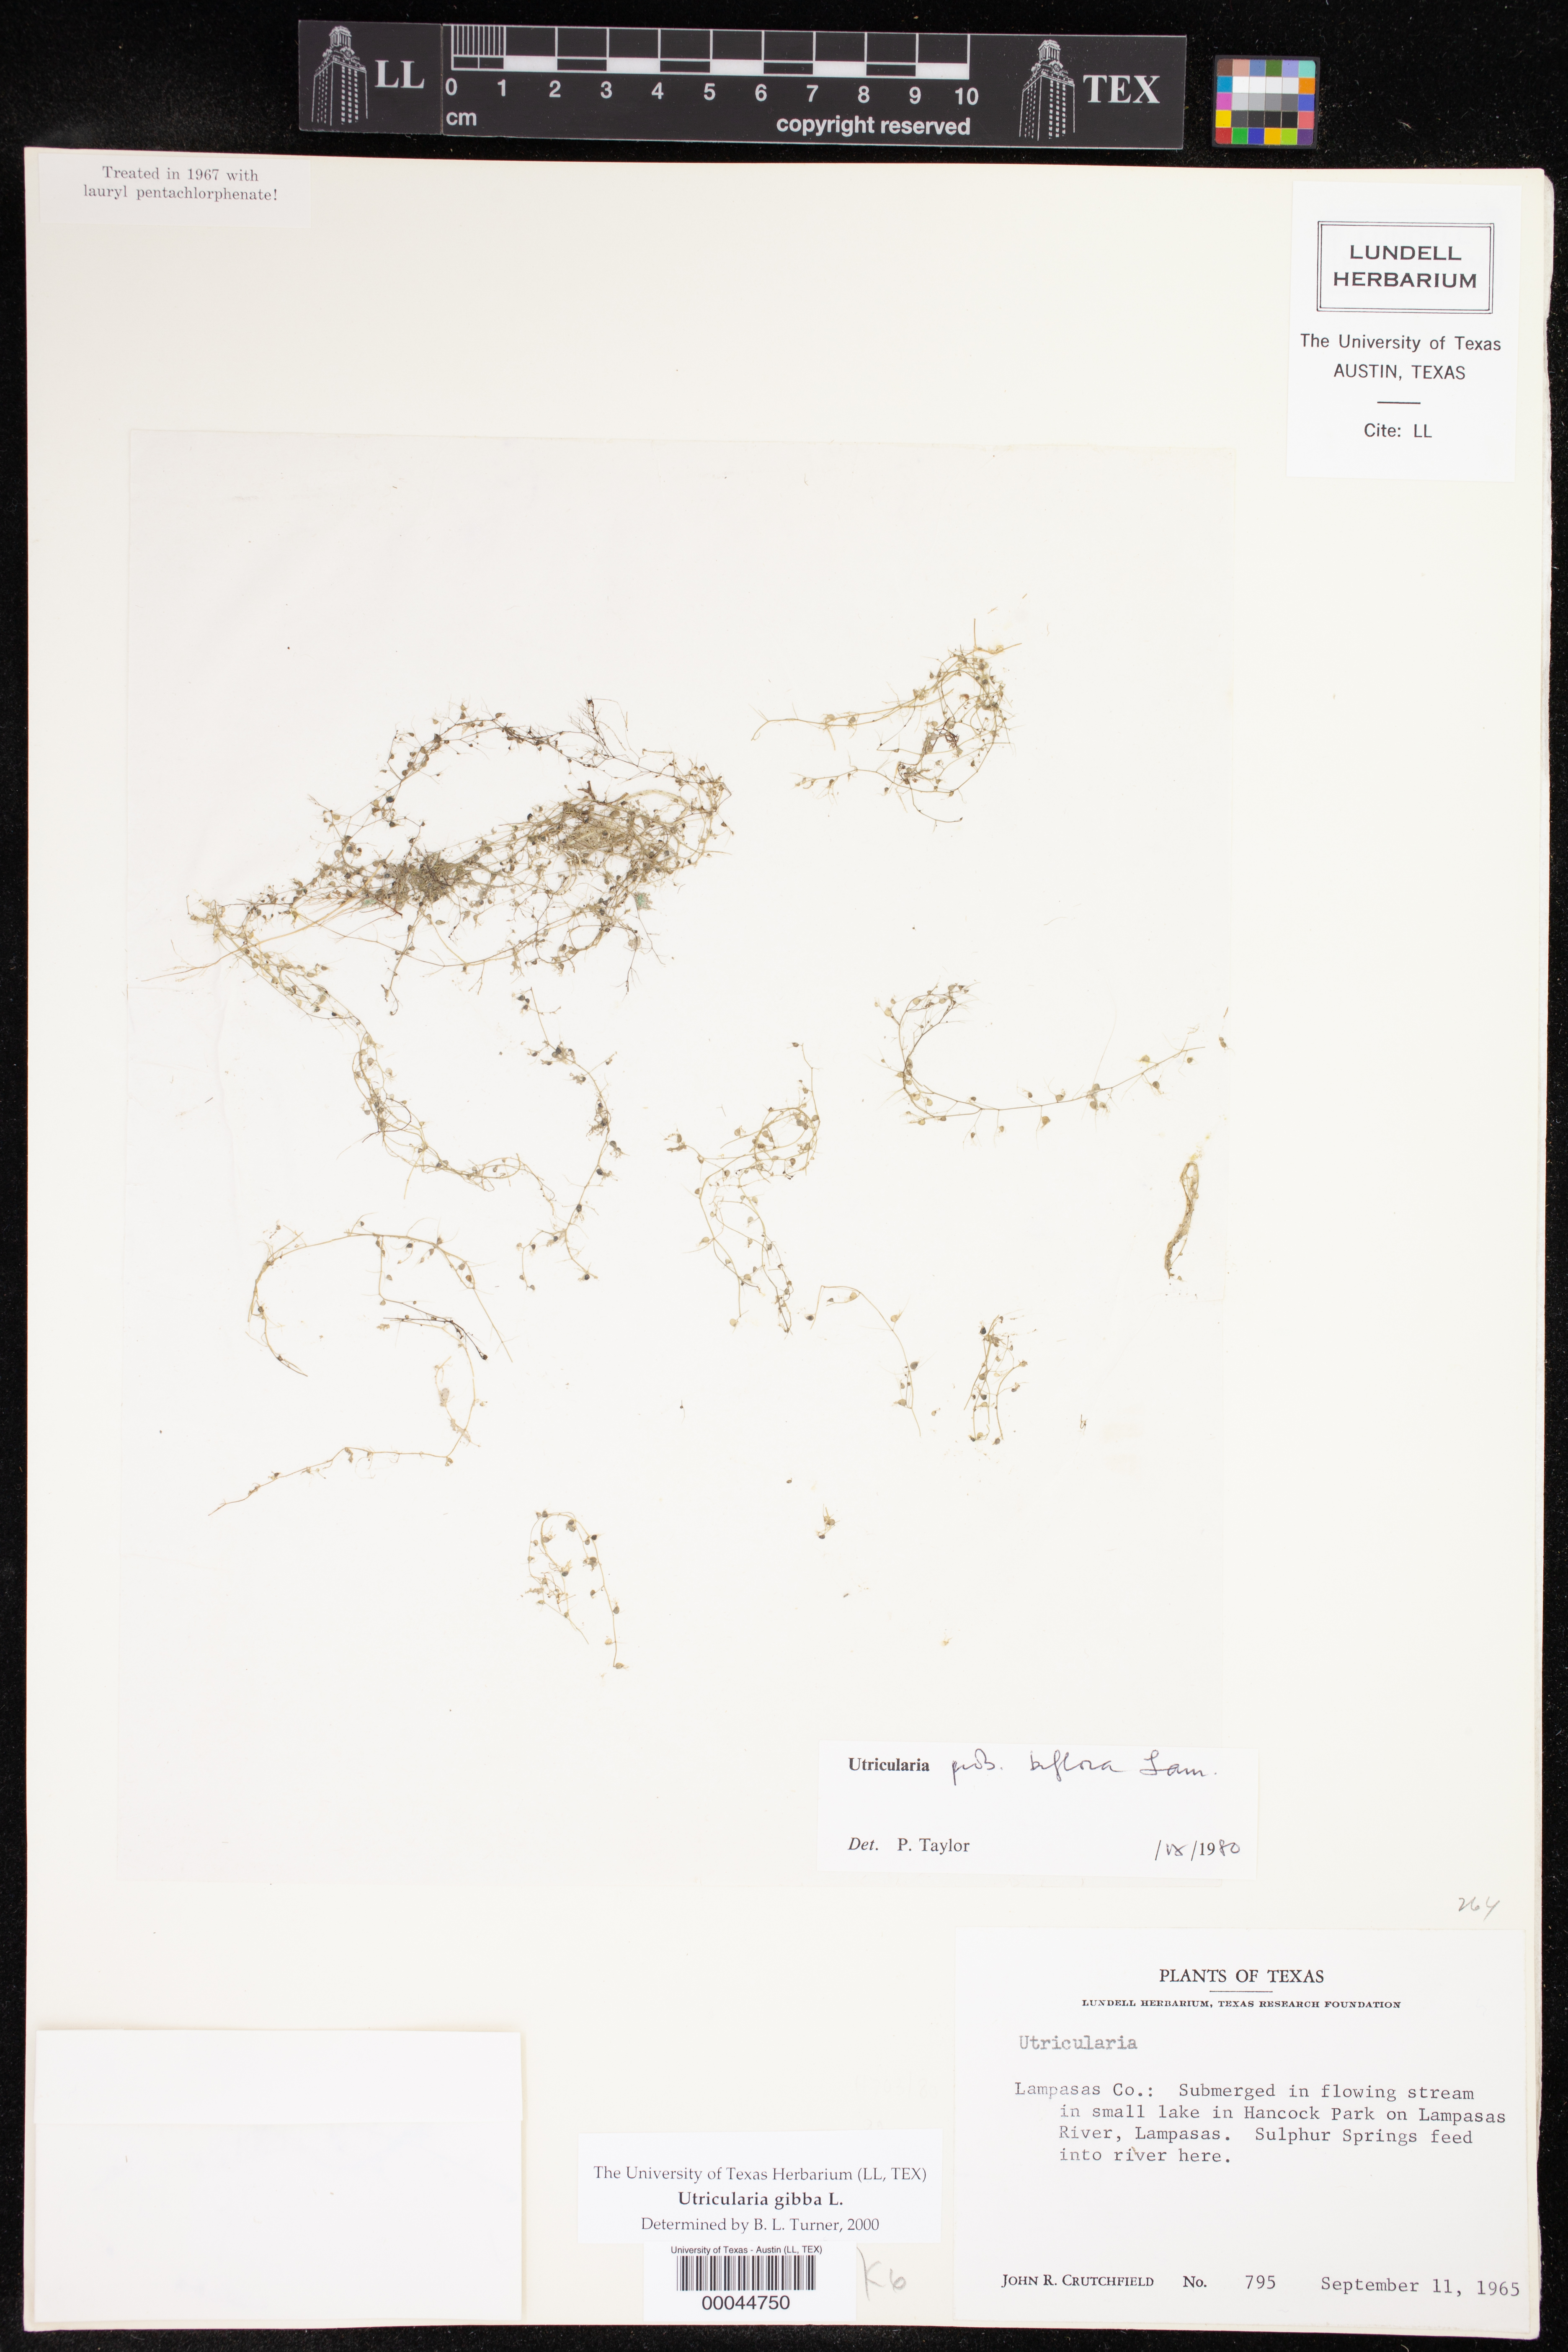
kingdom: Plantae
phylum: Tracheophyta
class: Magnoliopsida
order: Lamiales
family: Lentibulariaceae
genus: Utricularia
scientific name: Utricularia gibba
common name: Humped bladderwort
